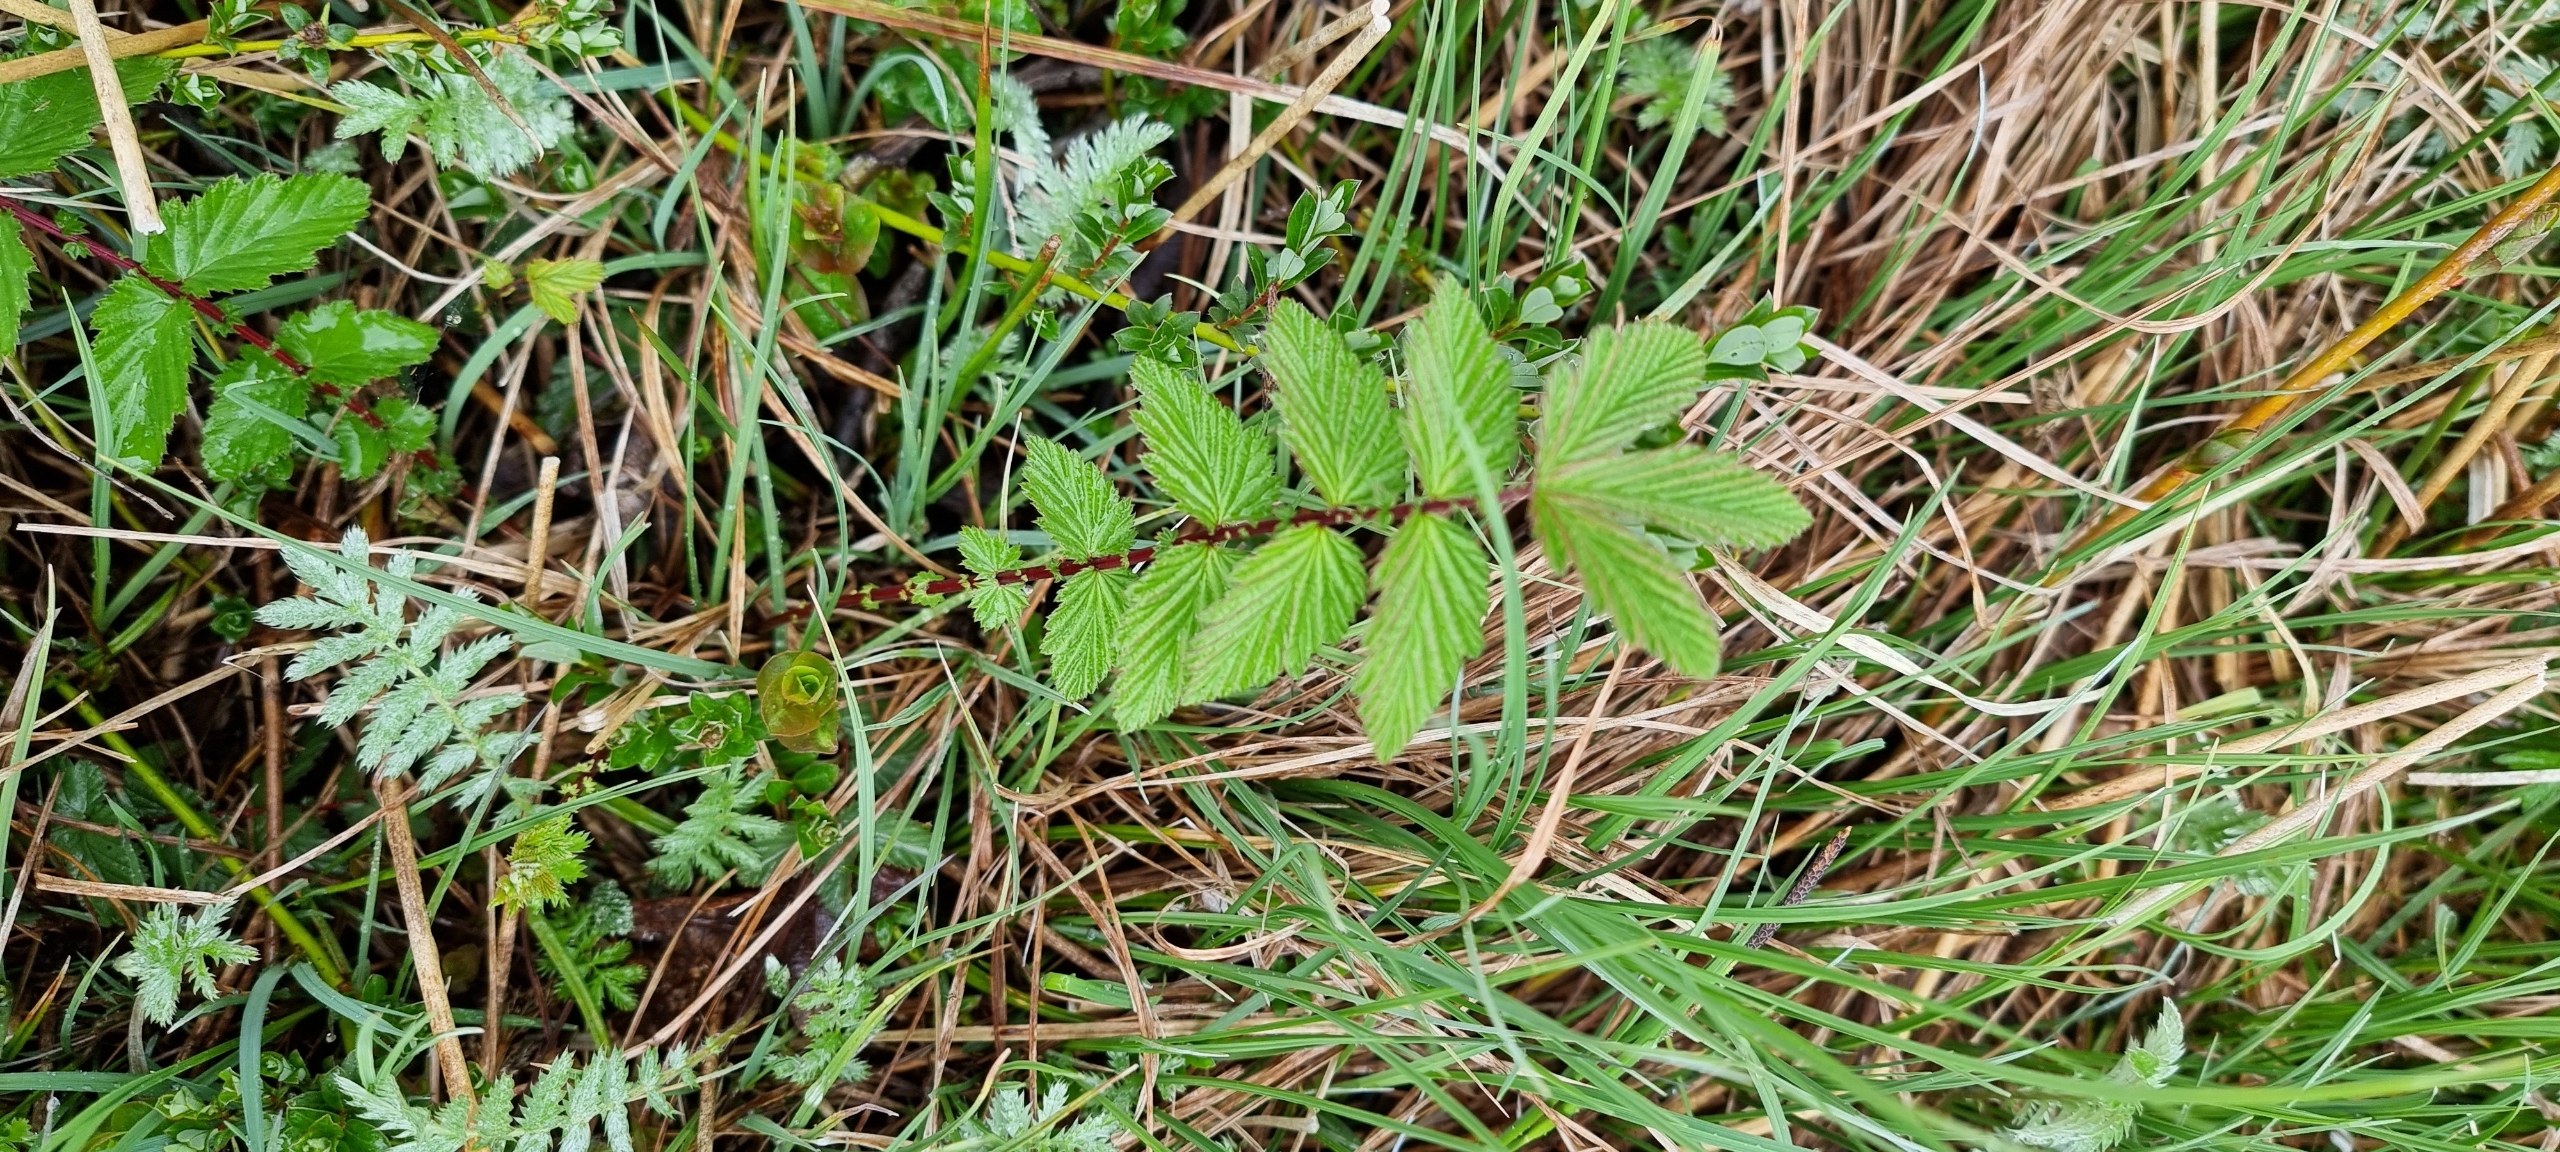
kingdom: Plantae
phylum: Tracheophyta
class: Magnoliopsida
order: Rosales
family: Rosaceae
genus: Filipendula
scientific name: Filipendula ulmaria
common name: Almindelig mjødurt
